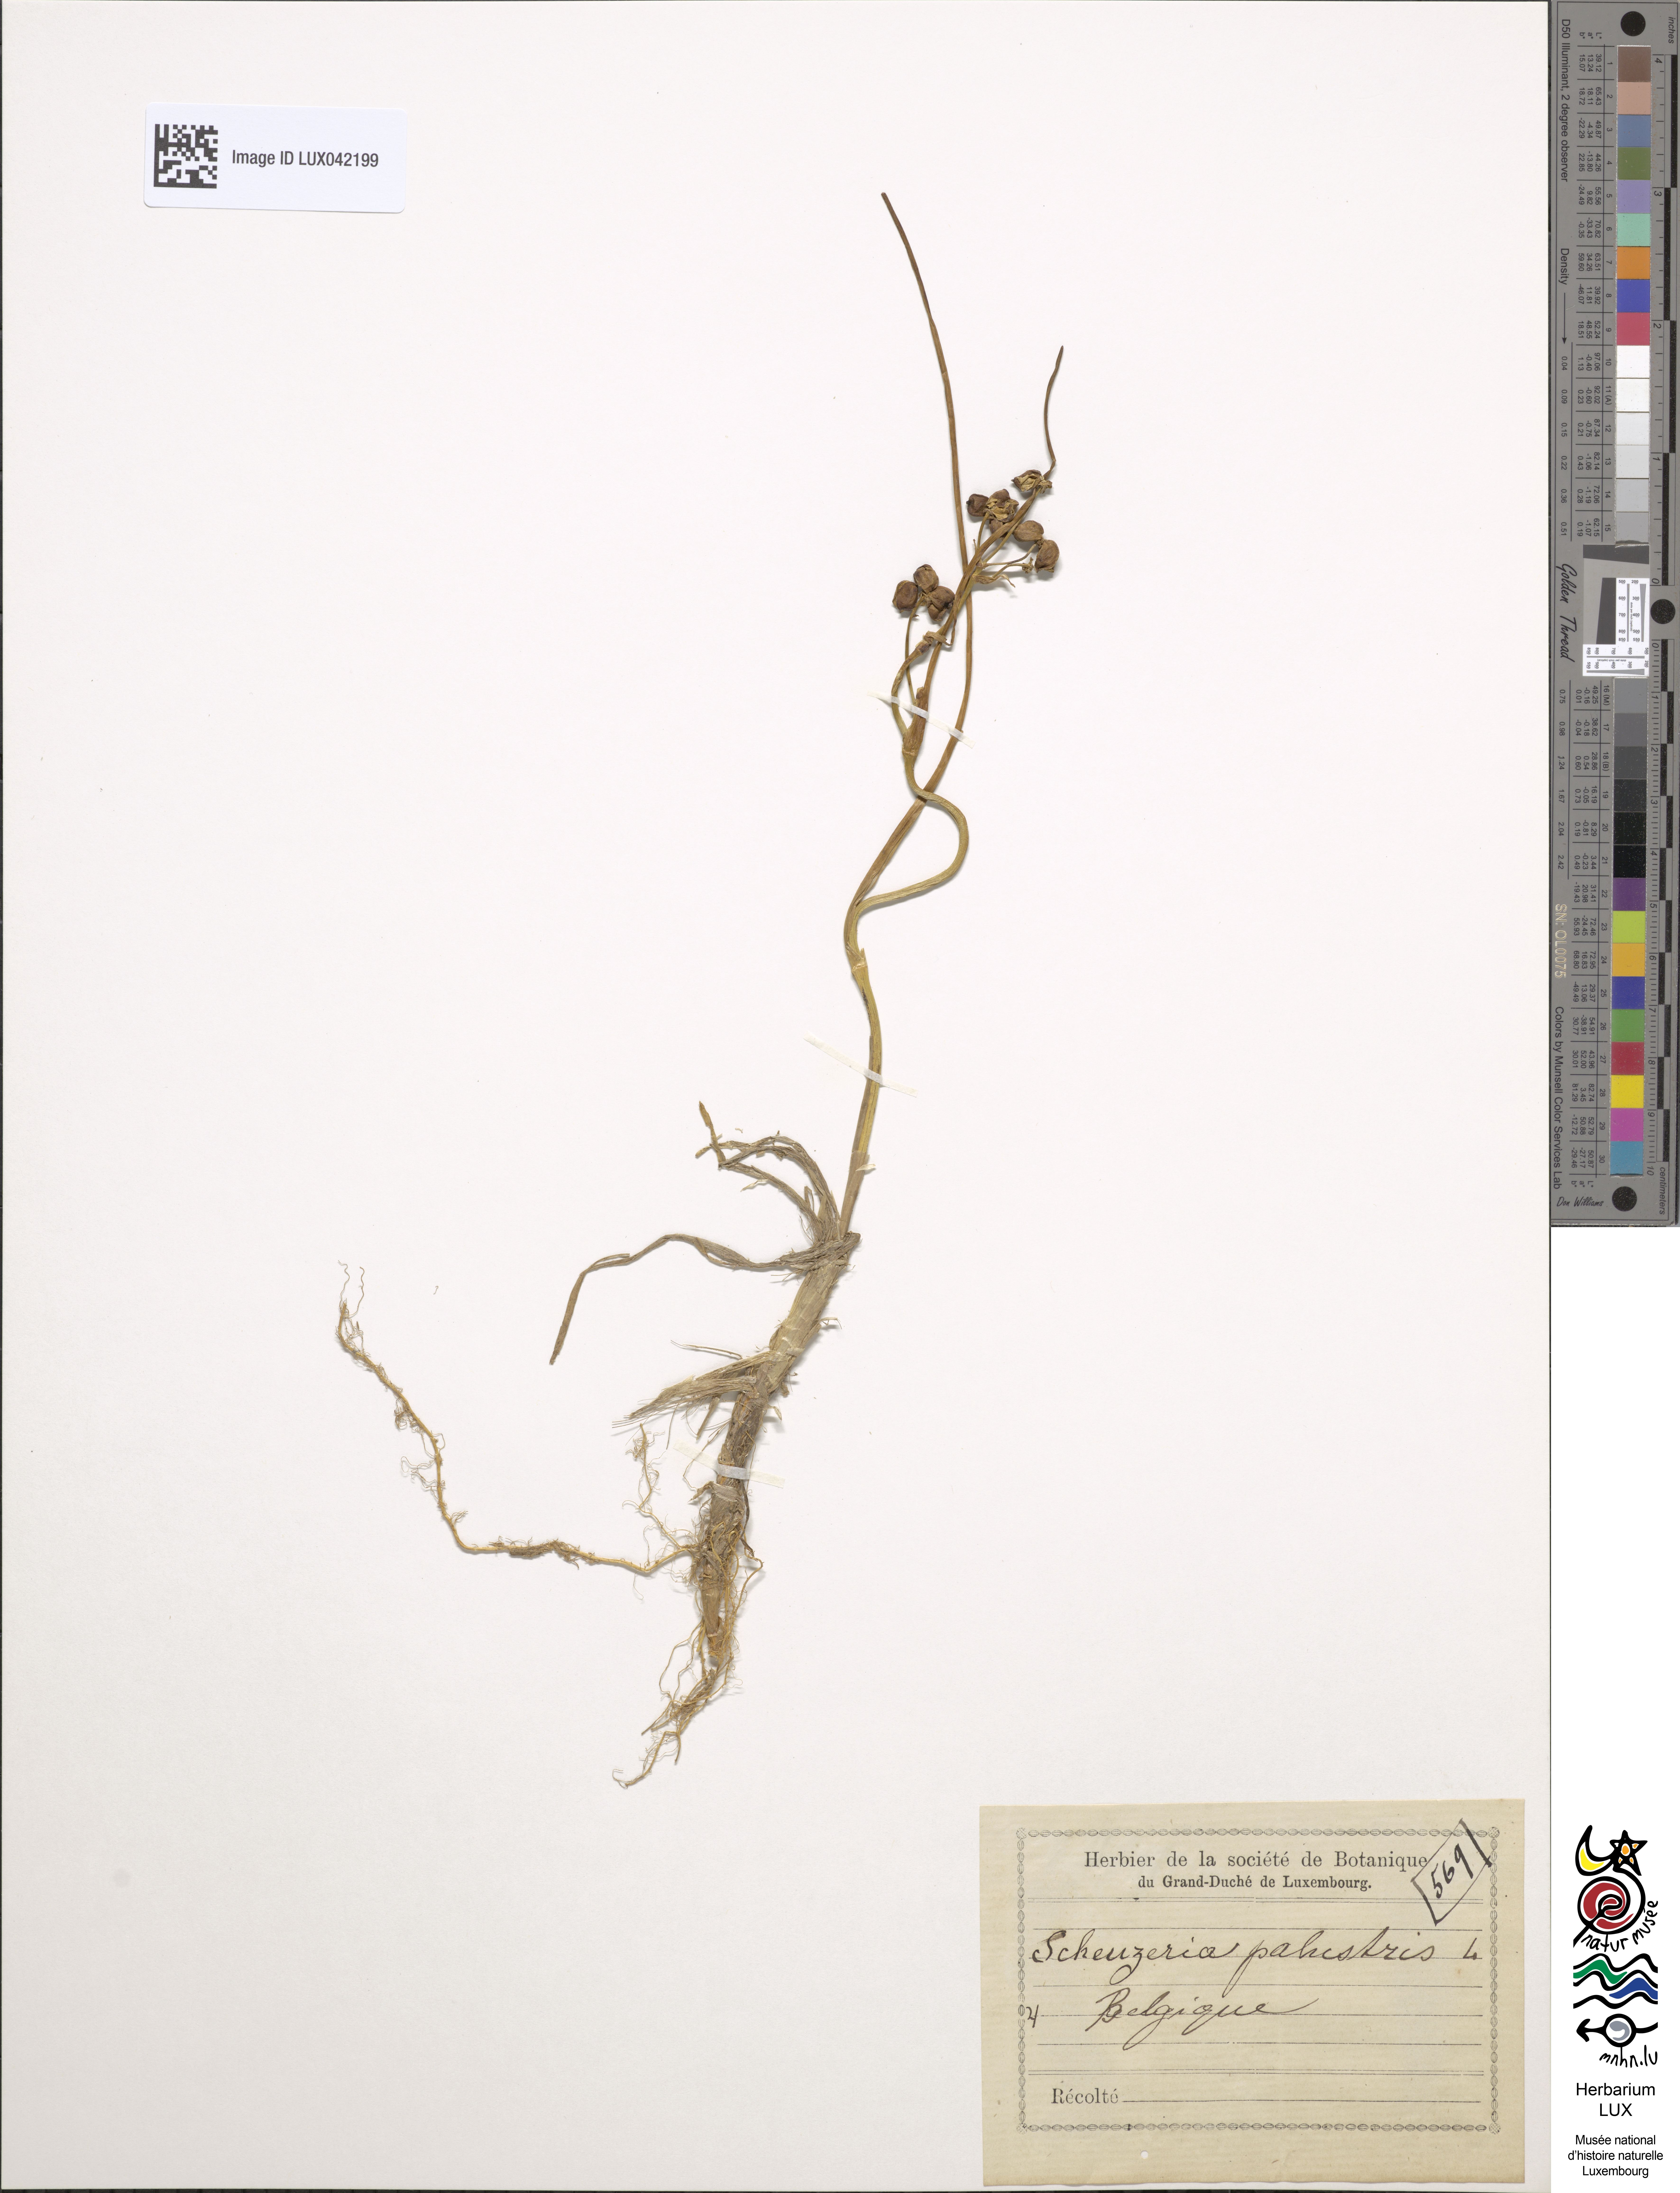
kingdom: Plantae
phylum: Tracheophyta
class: Liliopsida
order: Alismatales
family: Scheuchzeriaceae
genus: Scheuchzeria
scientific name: Scheuchzeria palustris
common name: Rannoch-rush
